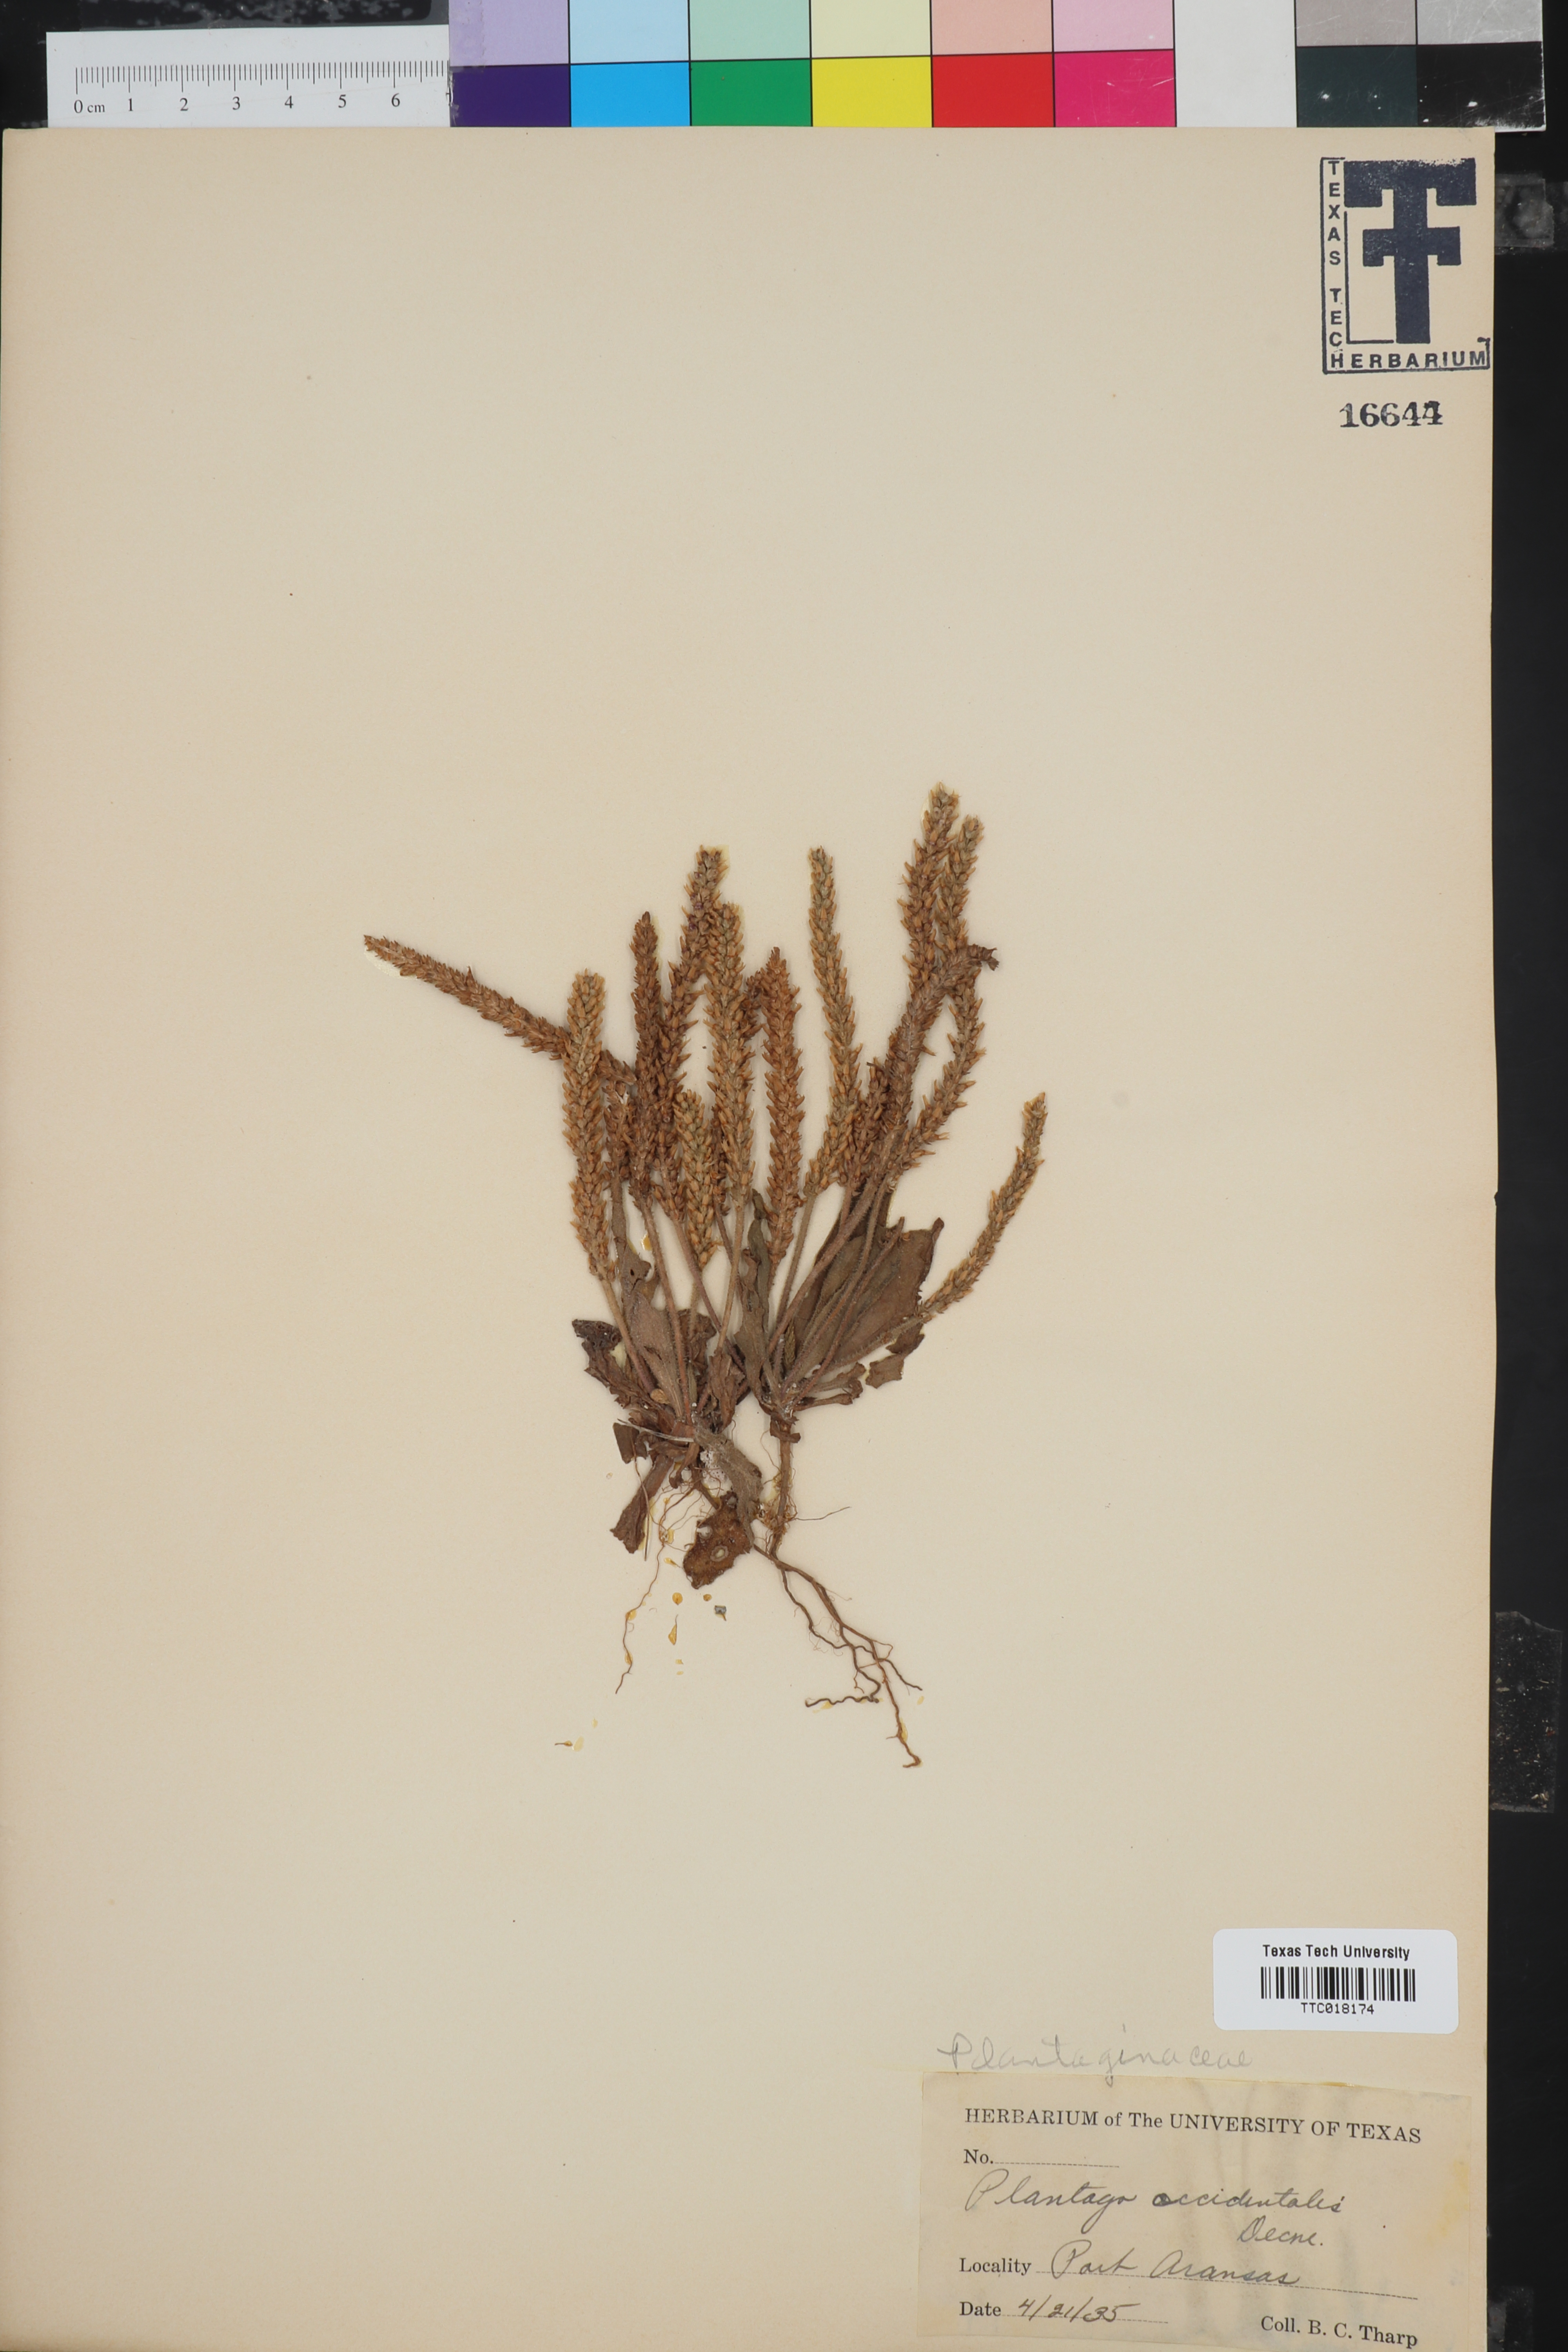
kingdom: Plantae
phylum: Tracheophyta
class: Magnoliopsida
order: Lamiales
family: Plantaginaceae
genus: Plantago
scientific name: Plantago myosuros
